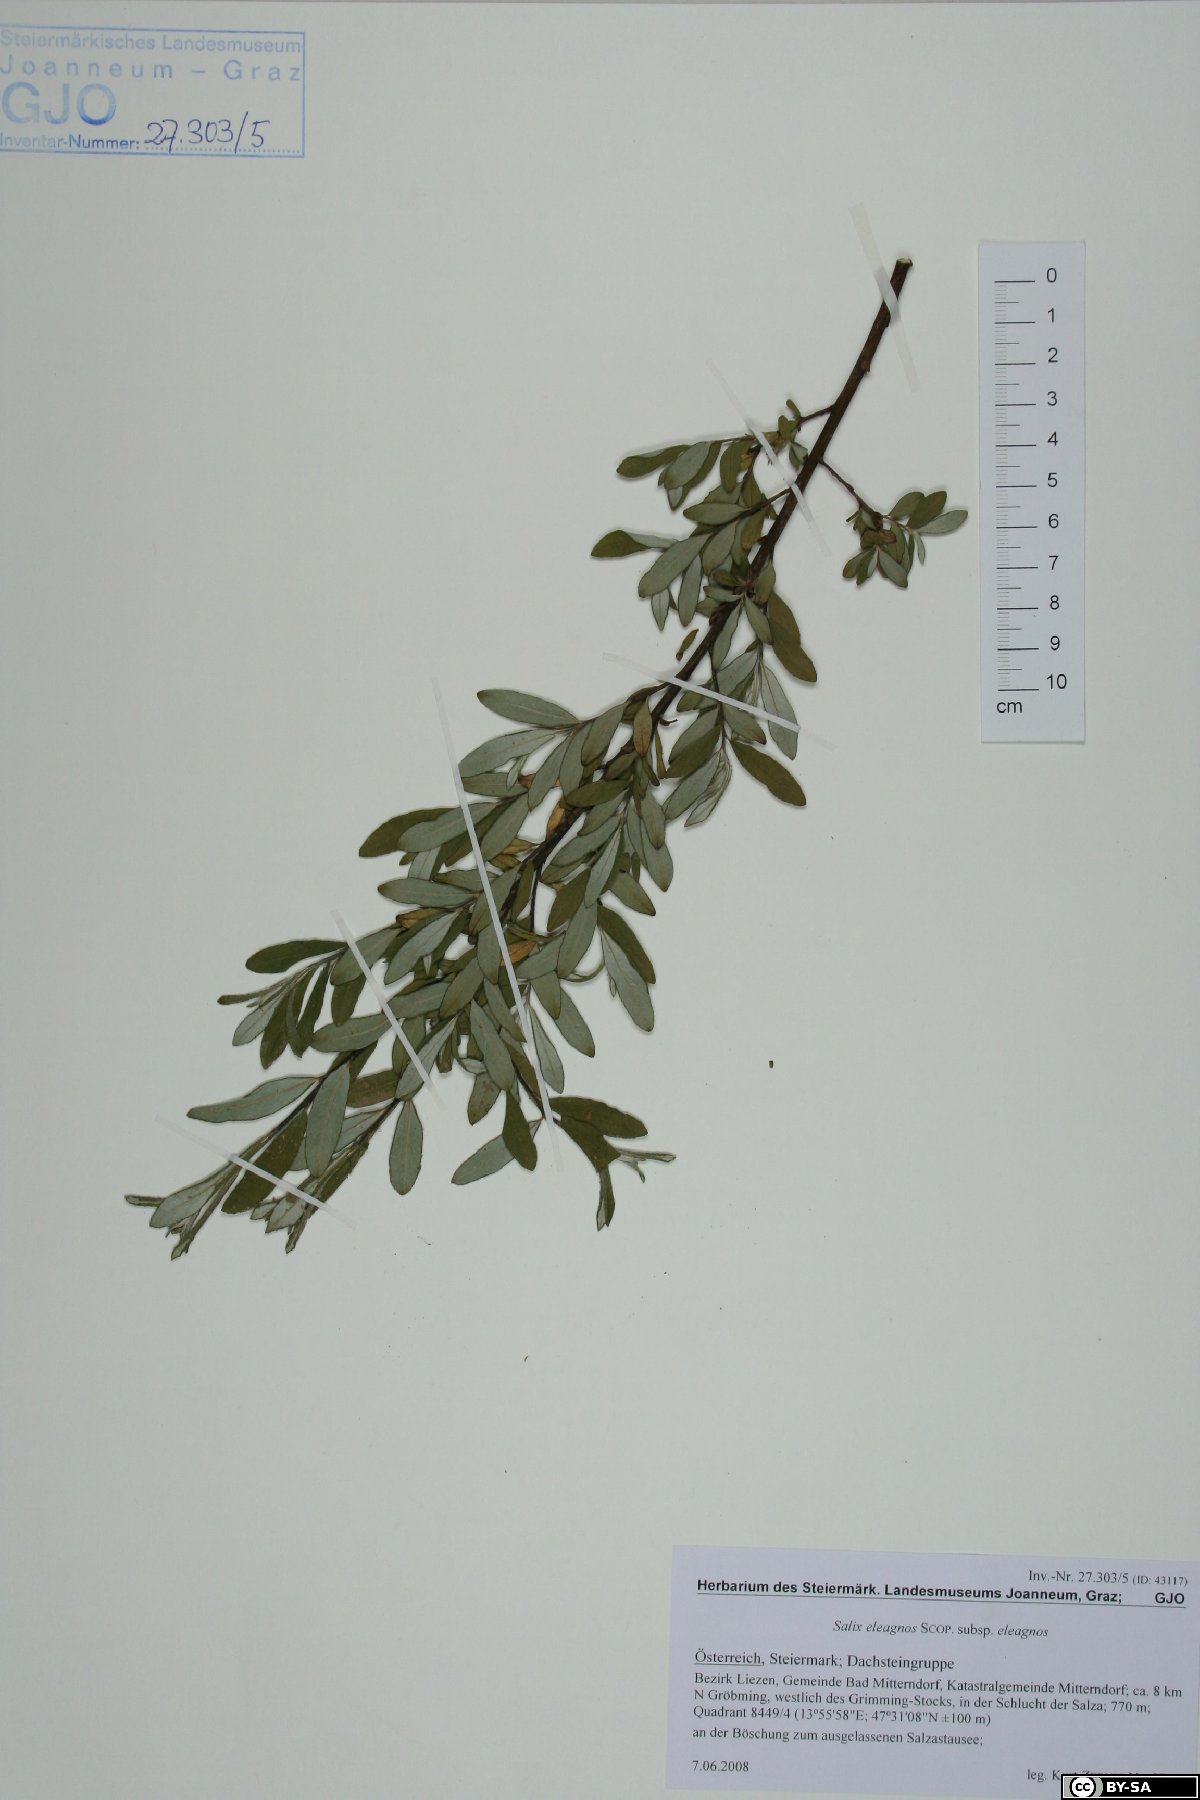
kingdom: Plantae
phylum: Tracheophyta
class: Magnoliopsida
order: Malpighiales
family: Salicaceae
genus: Salix
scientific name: Salix eleagnos
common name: Elaeagnus willow
